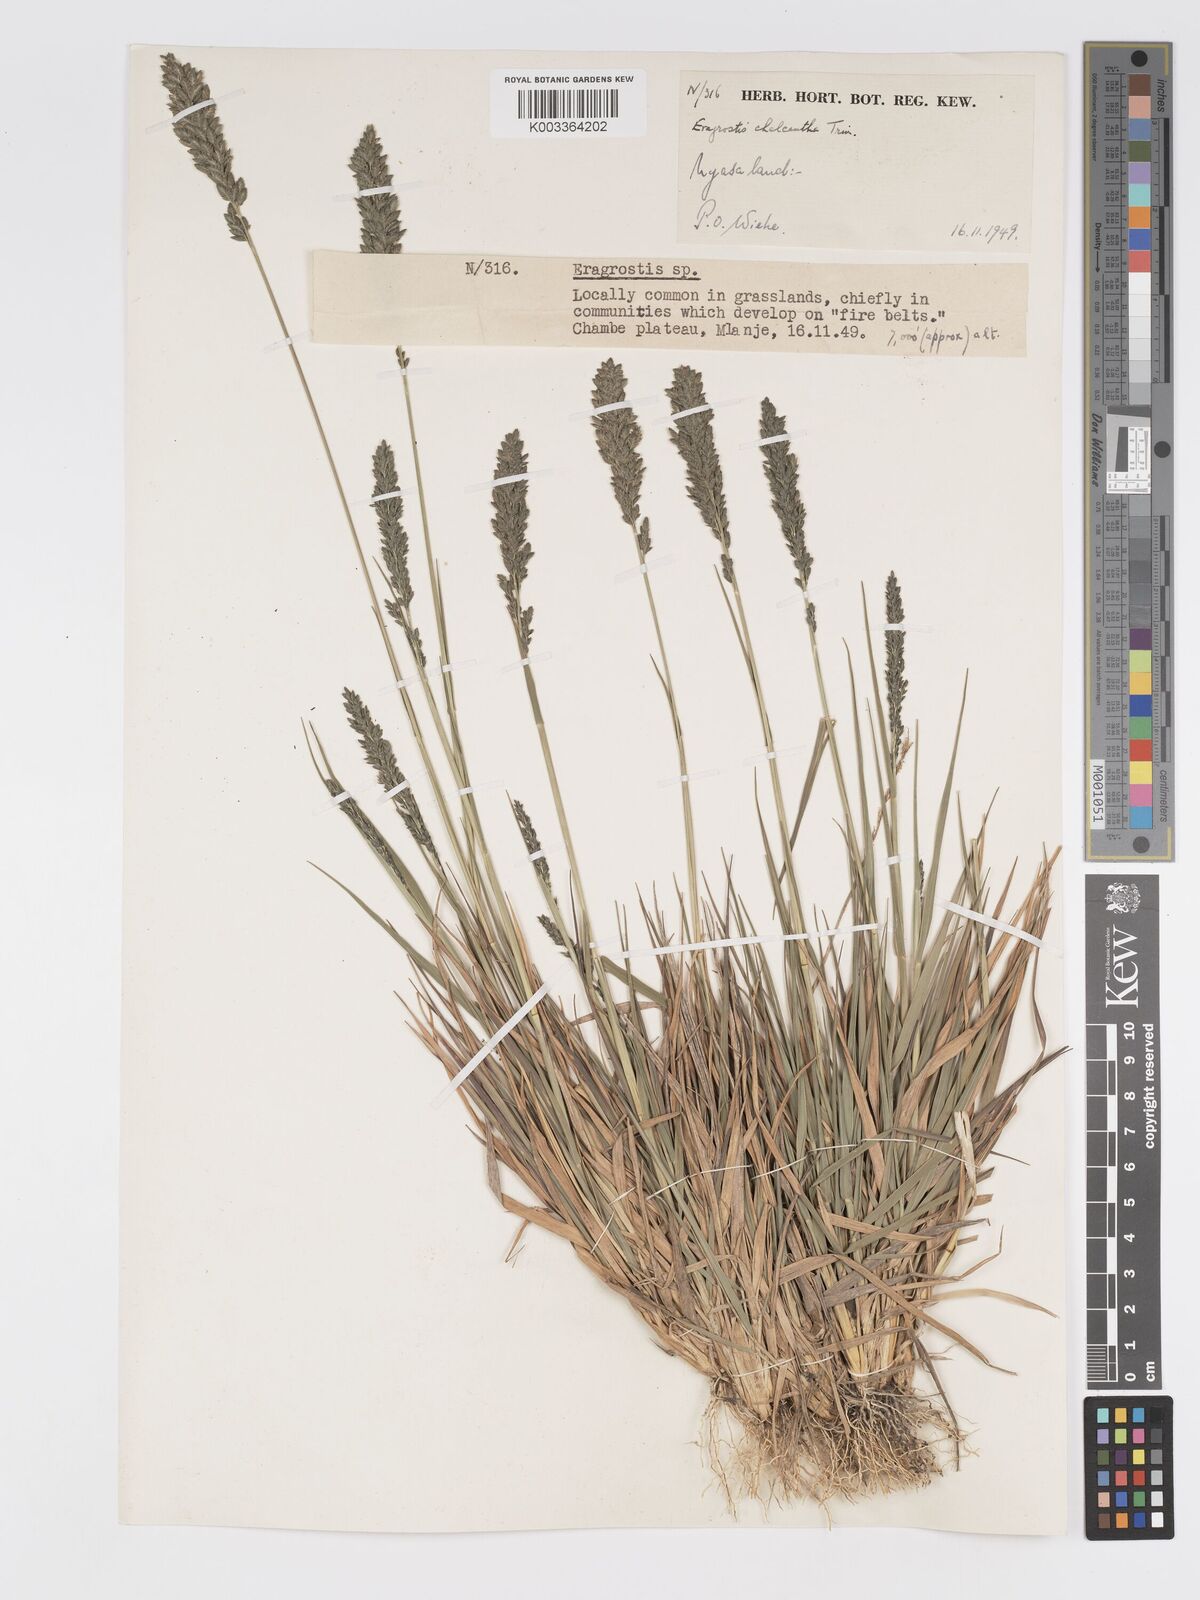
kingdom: Plantae
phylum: Tracheophyta
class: Liliopsida
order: Poales
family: Poaceae
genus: Eragrostis
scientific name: Eragrostis racemosa
